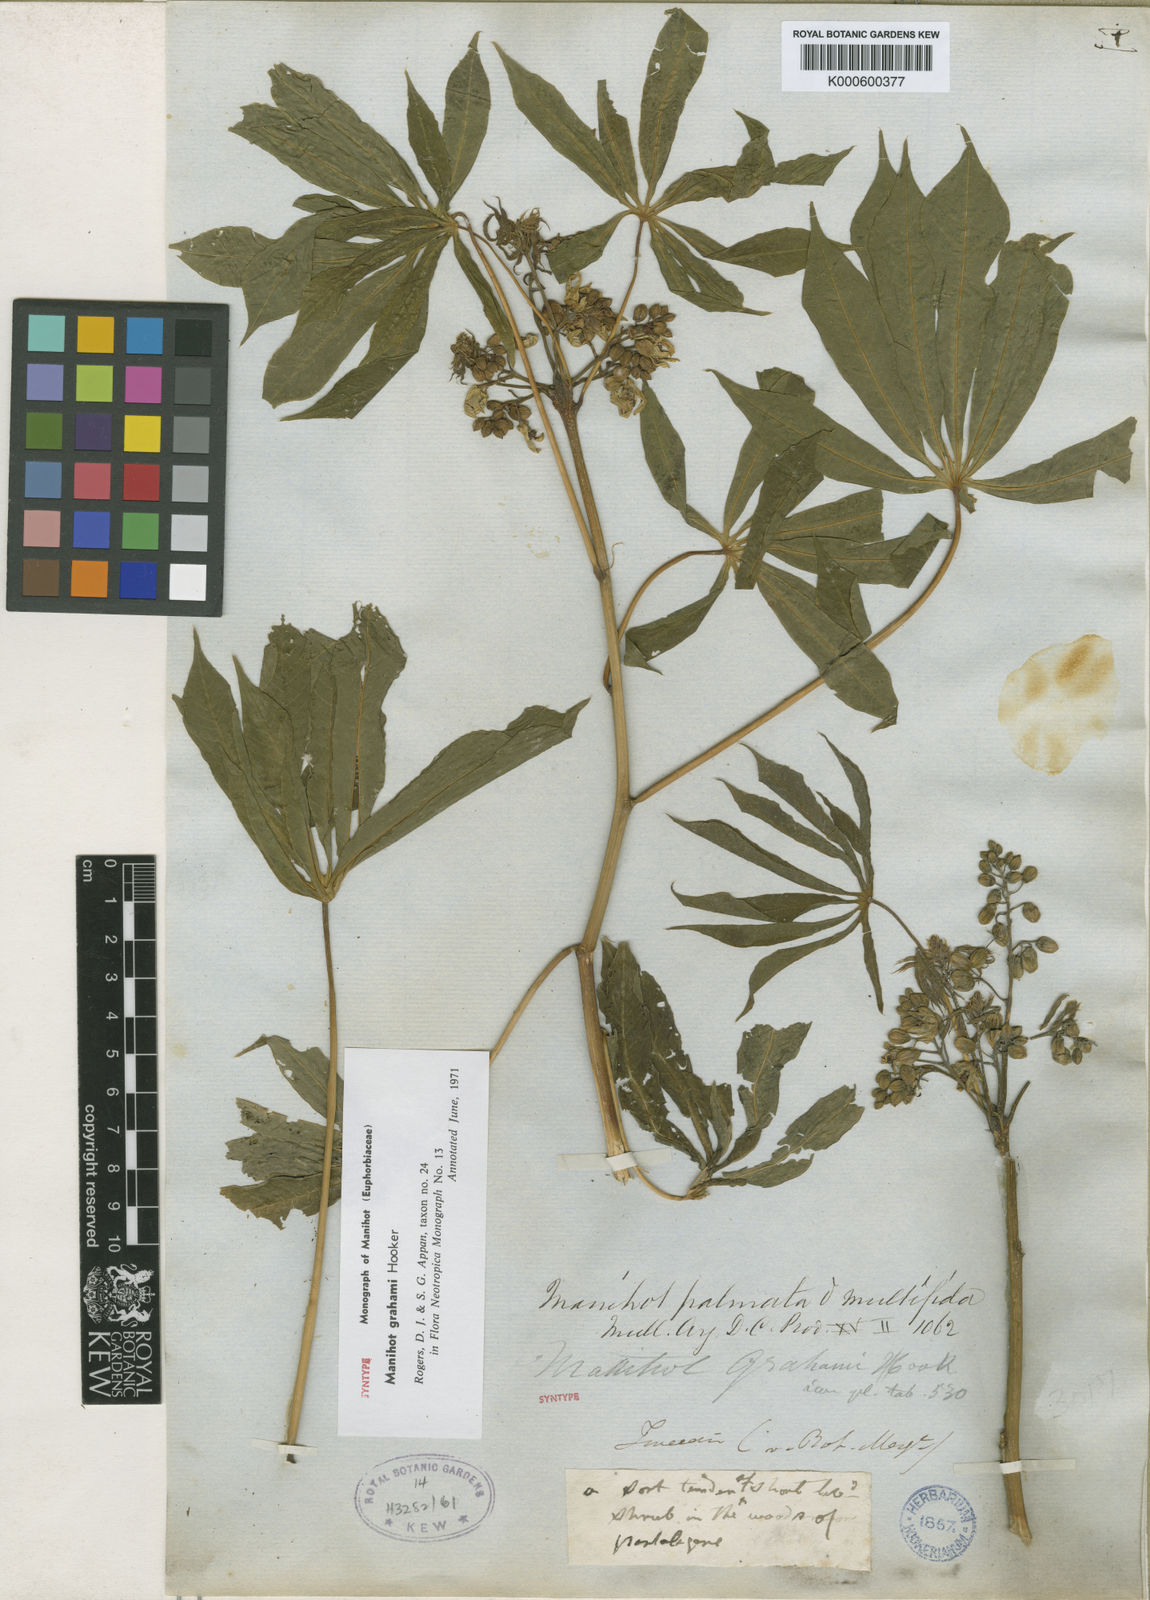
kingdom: Plantae
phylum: Tracheophyta
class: Magnoliopsida
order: Malpighiales
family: Euphorbiaceae
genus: Manihot
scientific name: Manihot grahamii
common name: Graham's manihot
